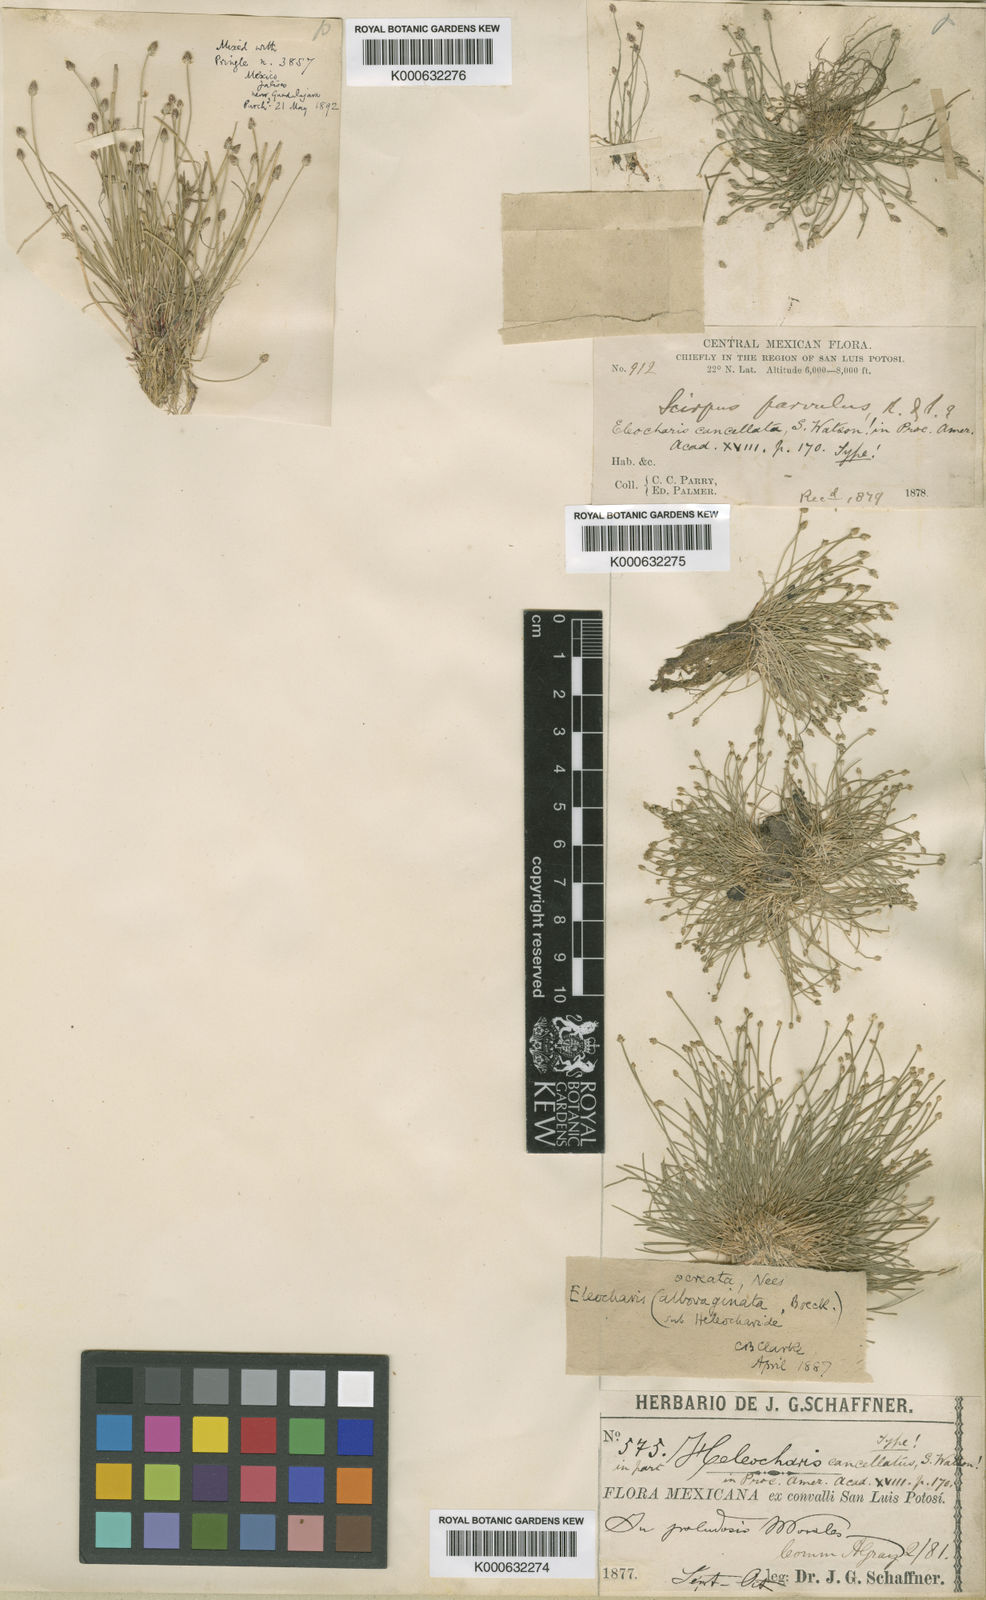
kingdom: Plantae
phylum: Tracheophyta
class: Liliopsida
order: Poales
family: Cyperaceae
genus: Eleocharis
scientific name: Eleocharis cancellata
